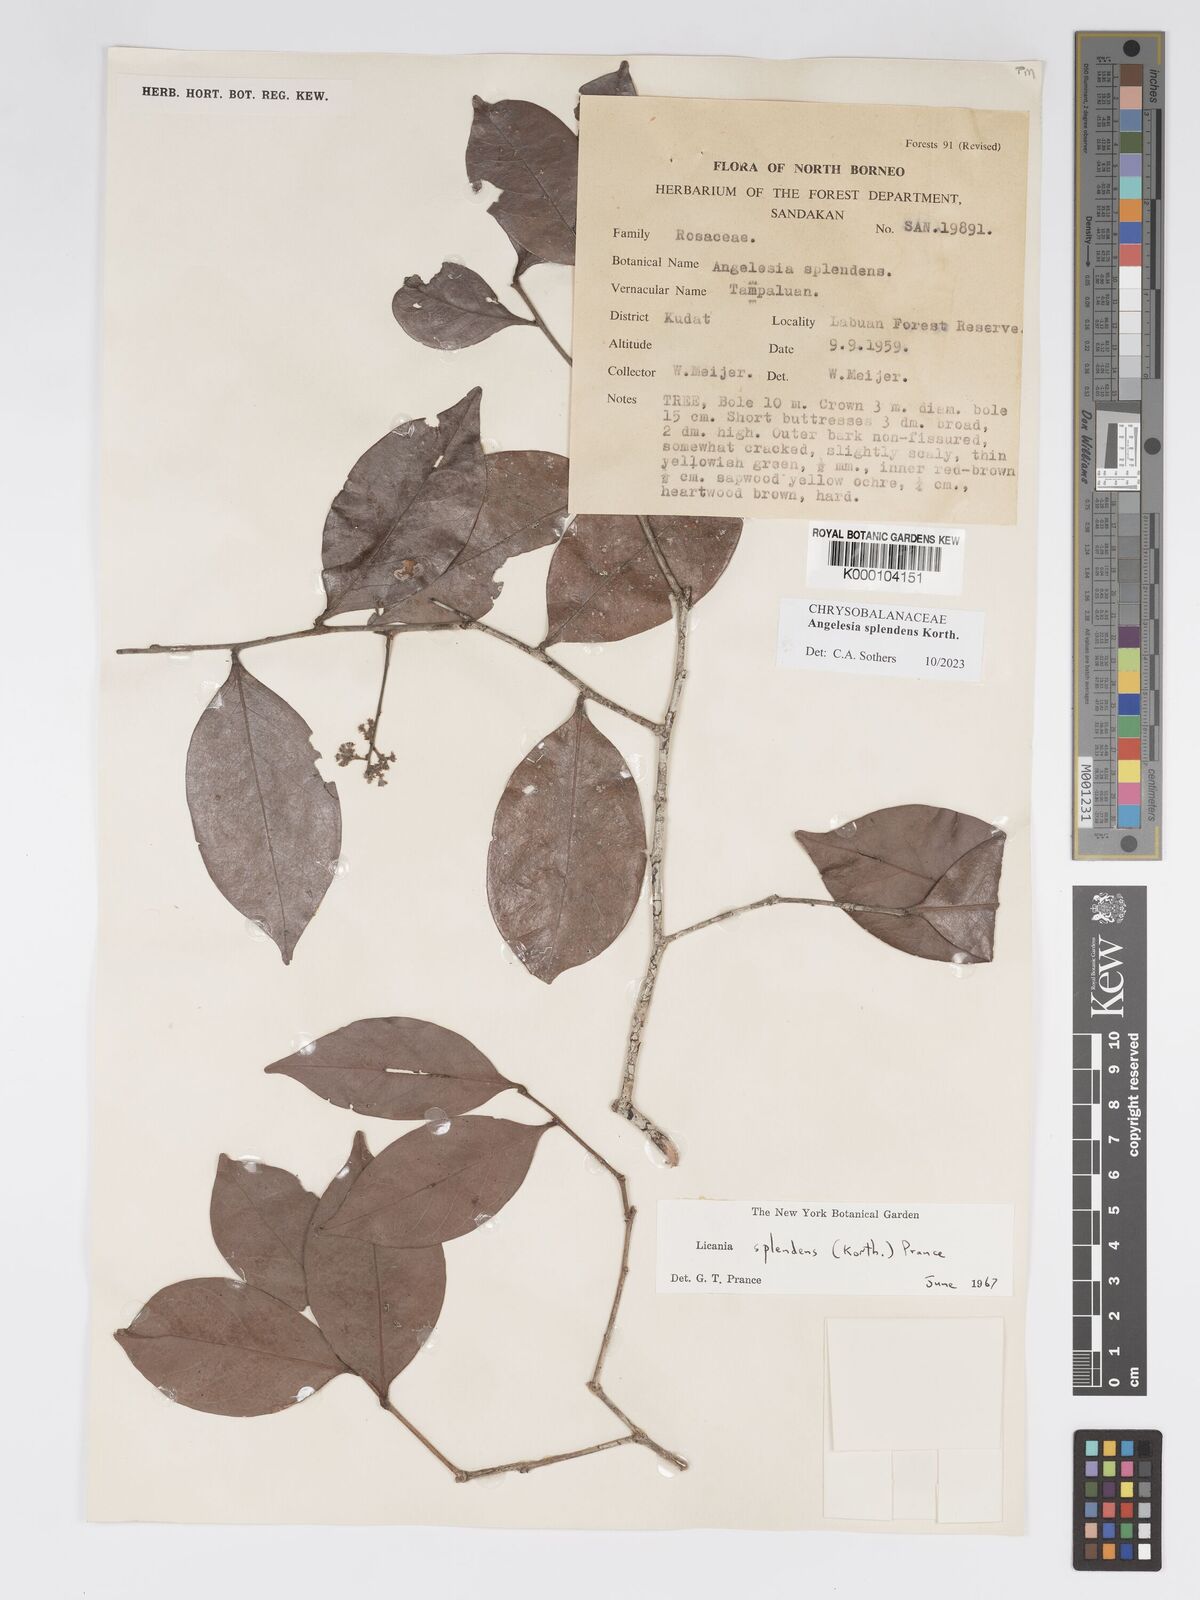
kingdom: Plantae
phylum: Tracheophyta
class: Magnoliopsida
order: Malpighiales
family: Chrysobalanaceae
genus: Angelesia
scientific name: Angelesia splendens
